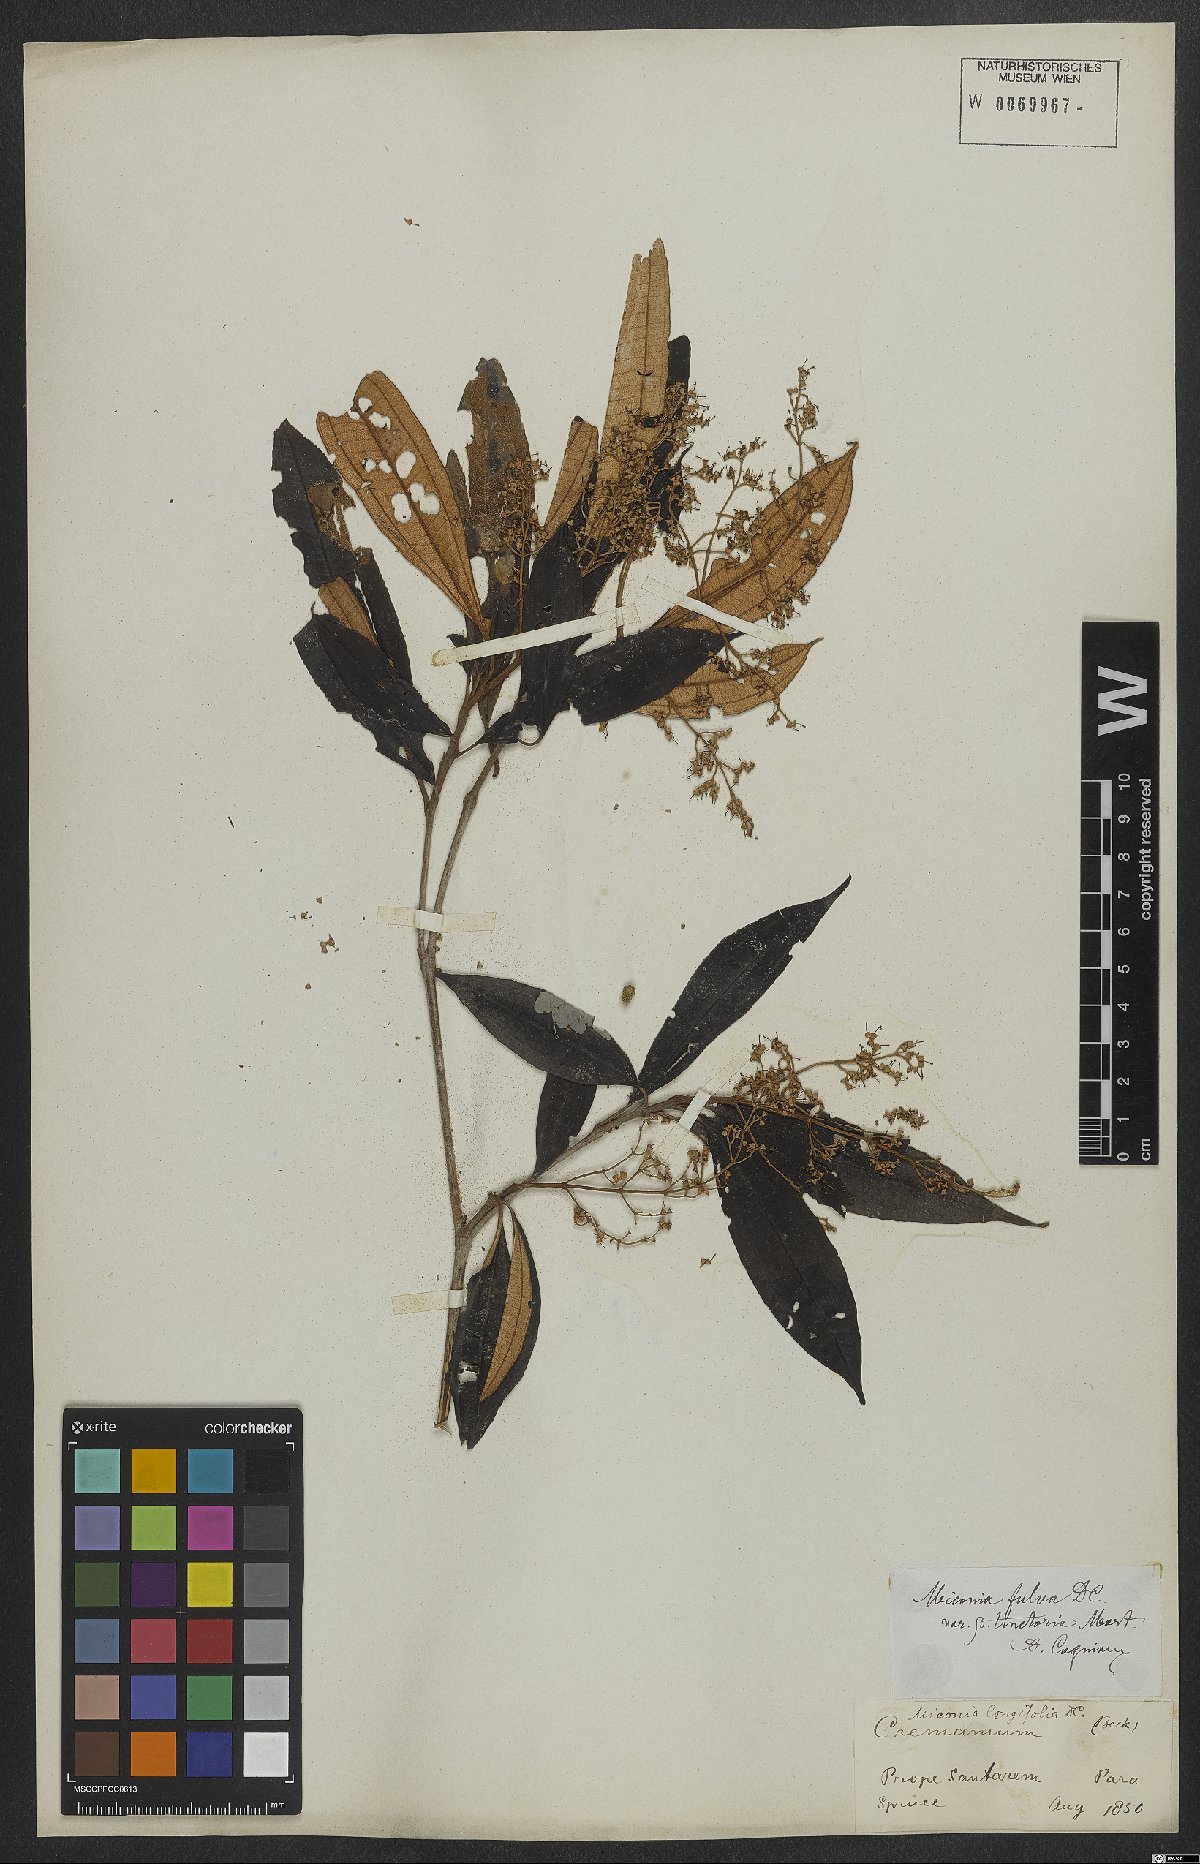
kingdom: Plantae
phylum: Tracheophyta
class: Magnoliopsida
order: Myrtales
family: Melastomataceae
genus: Miconia
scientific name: Miconia chrysophylla
